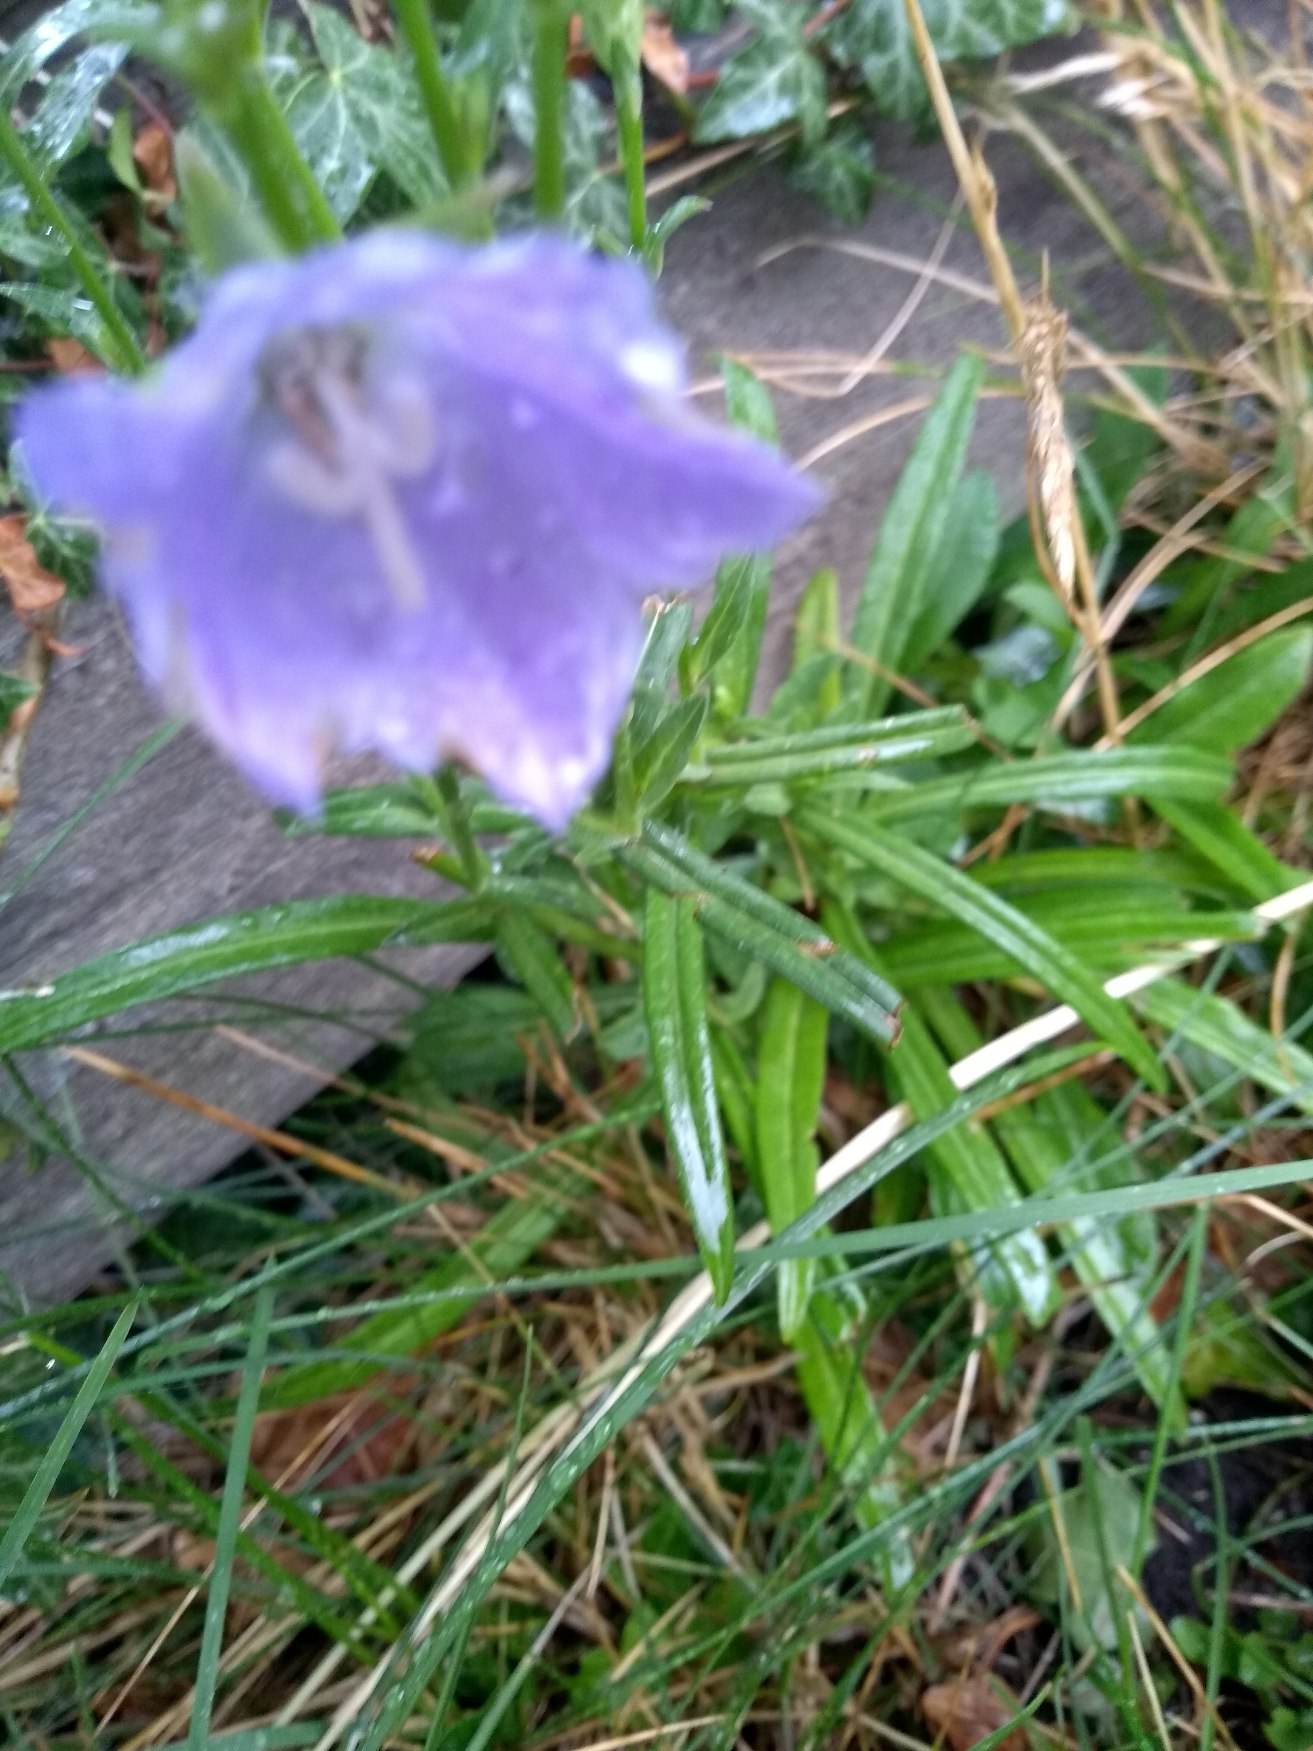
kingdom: Plantae
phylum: Tracheophyta
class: Magnoliopsida
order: Asterales
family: Campanulaceae
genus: Campanula
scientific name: Campanula persicifolia
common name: Smalbladet klokke
